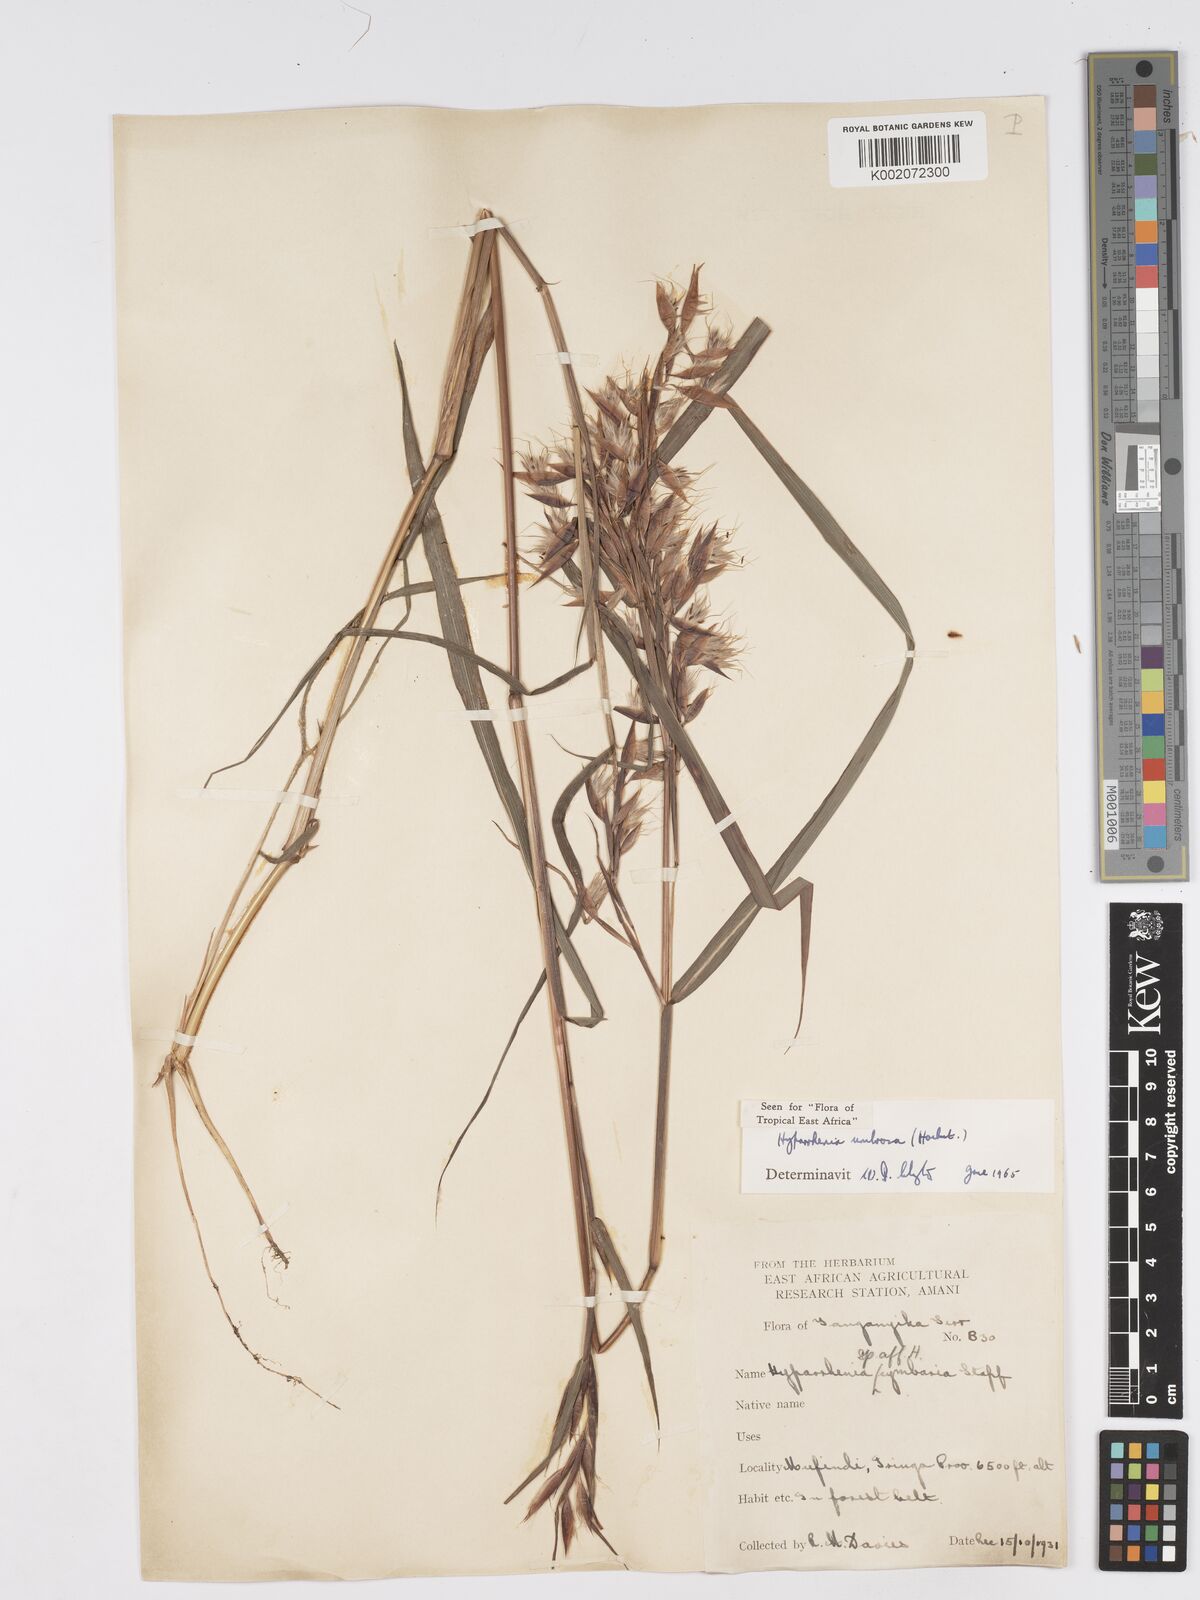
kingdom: Plantae
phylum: Tracheophyta
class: Liliopsida
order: Poales
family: Poaceae
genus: Hyparrhenia
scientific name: Hyparrhenia umbrosa
